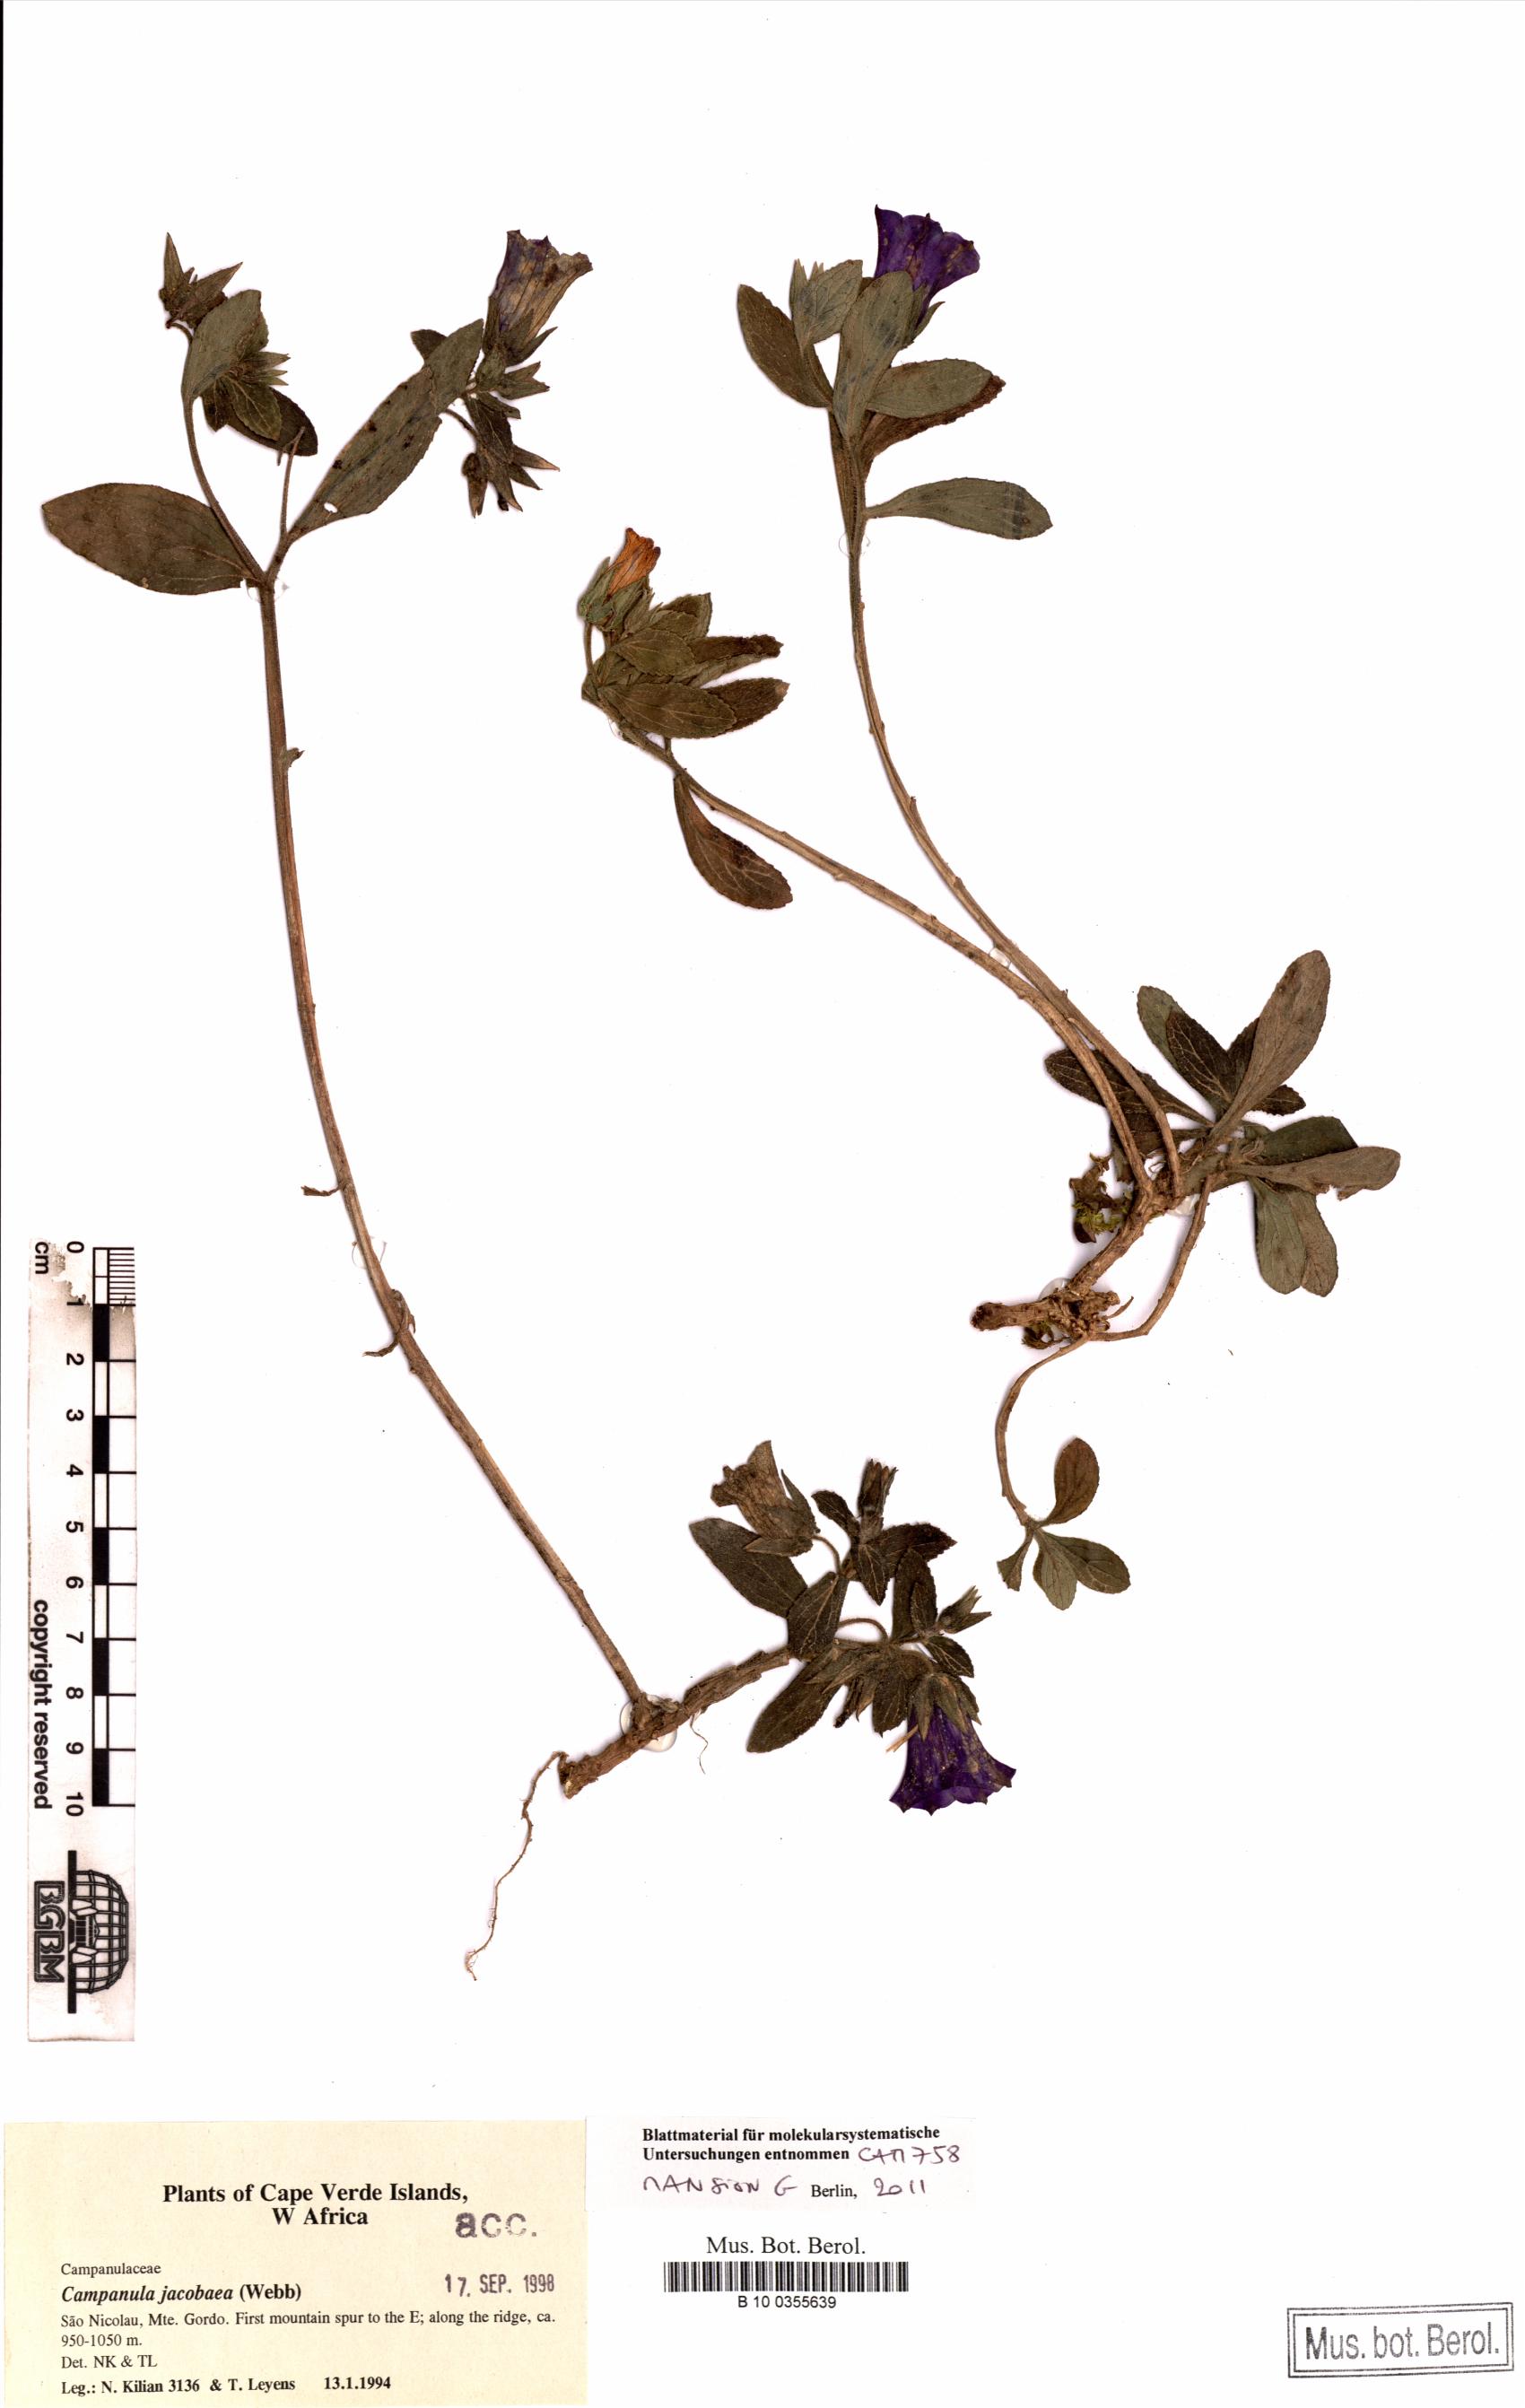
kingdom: Plantae
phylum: Tracheophyta
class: Magnoliopsida
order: Asterales
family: Campanulaceae
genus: Campanula
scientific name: Campanula jacobaea
